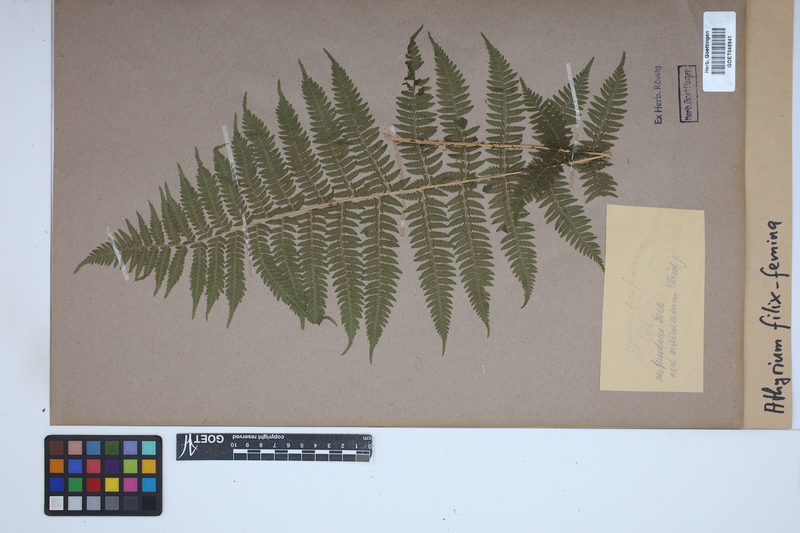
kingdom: Plantae
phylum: Tracheophyta
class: Polypodiopsida
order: Polypodiales
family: Athyriaceae
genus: Athyrium
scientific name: Athyrium filix-femina
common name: Lady fern
